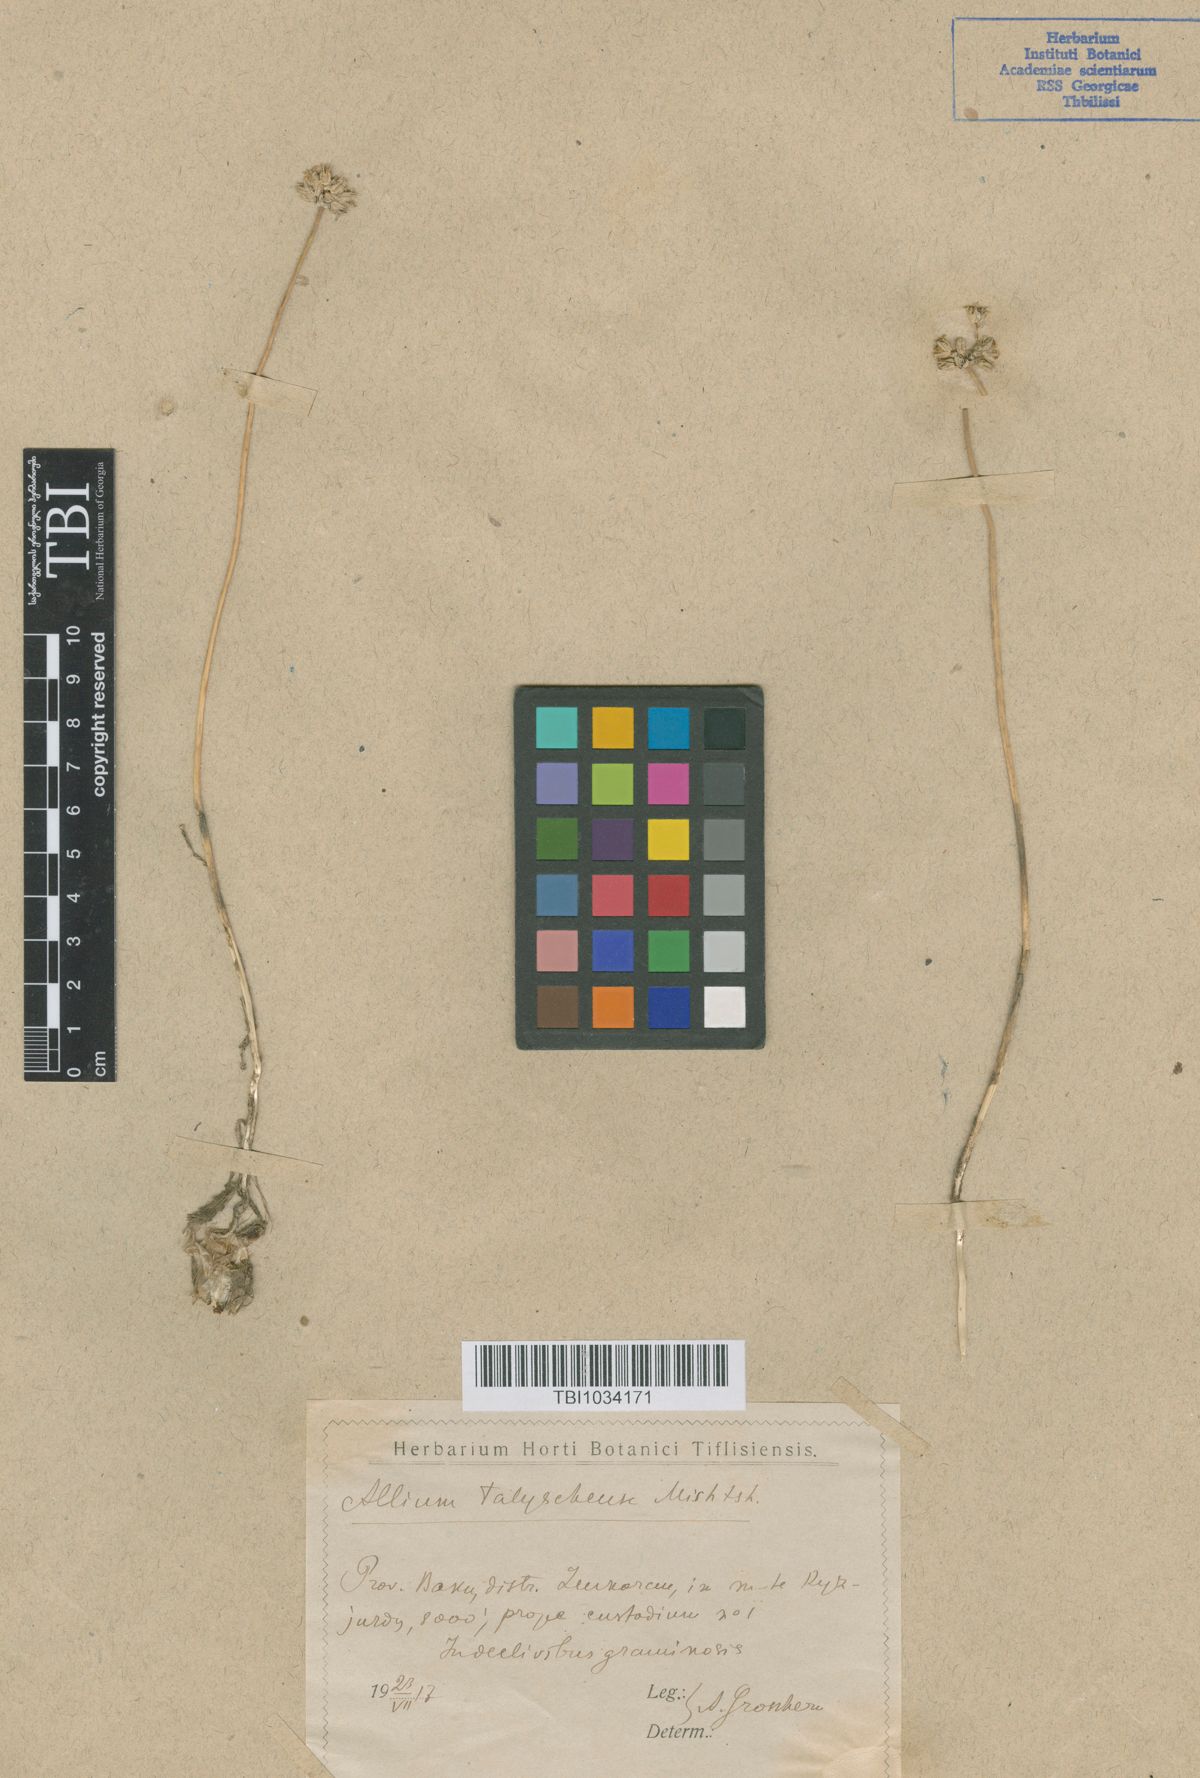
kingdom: Plantae
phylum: Tracheophyta
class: Liliopsida
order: Asparagales
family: Amaryllidaceae
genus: Allium
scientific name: Allium talyschense
